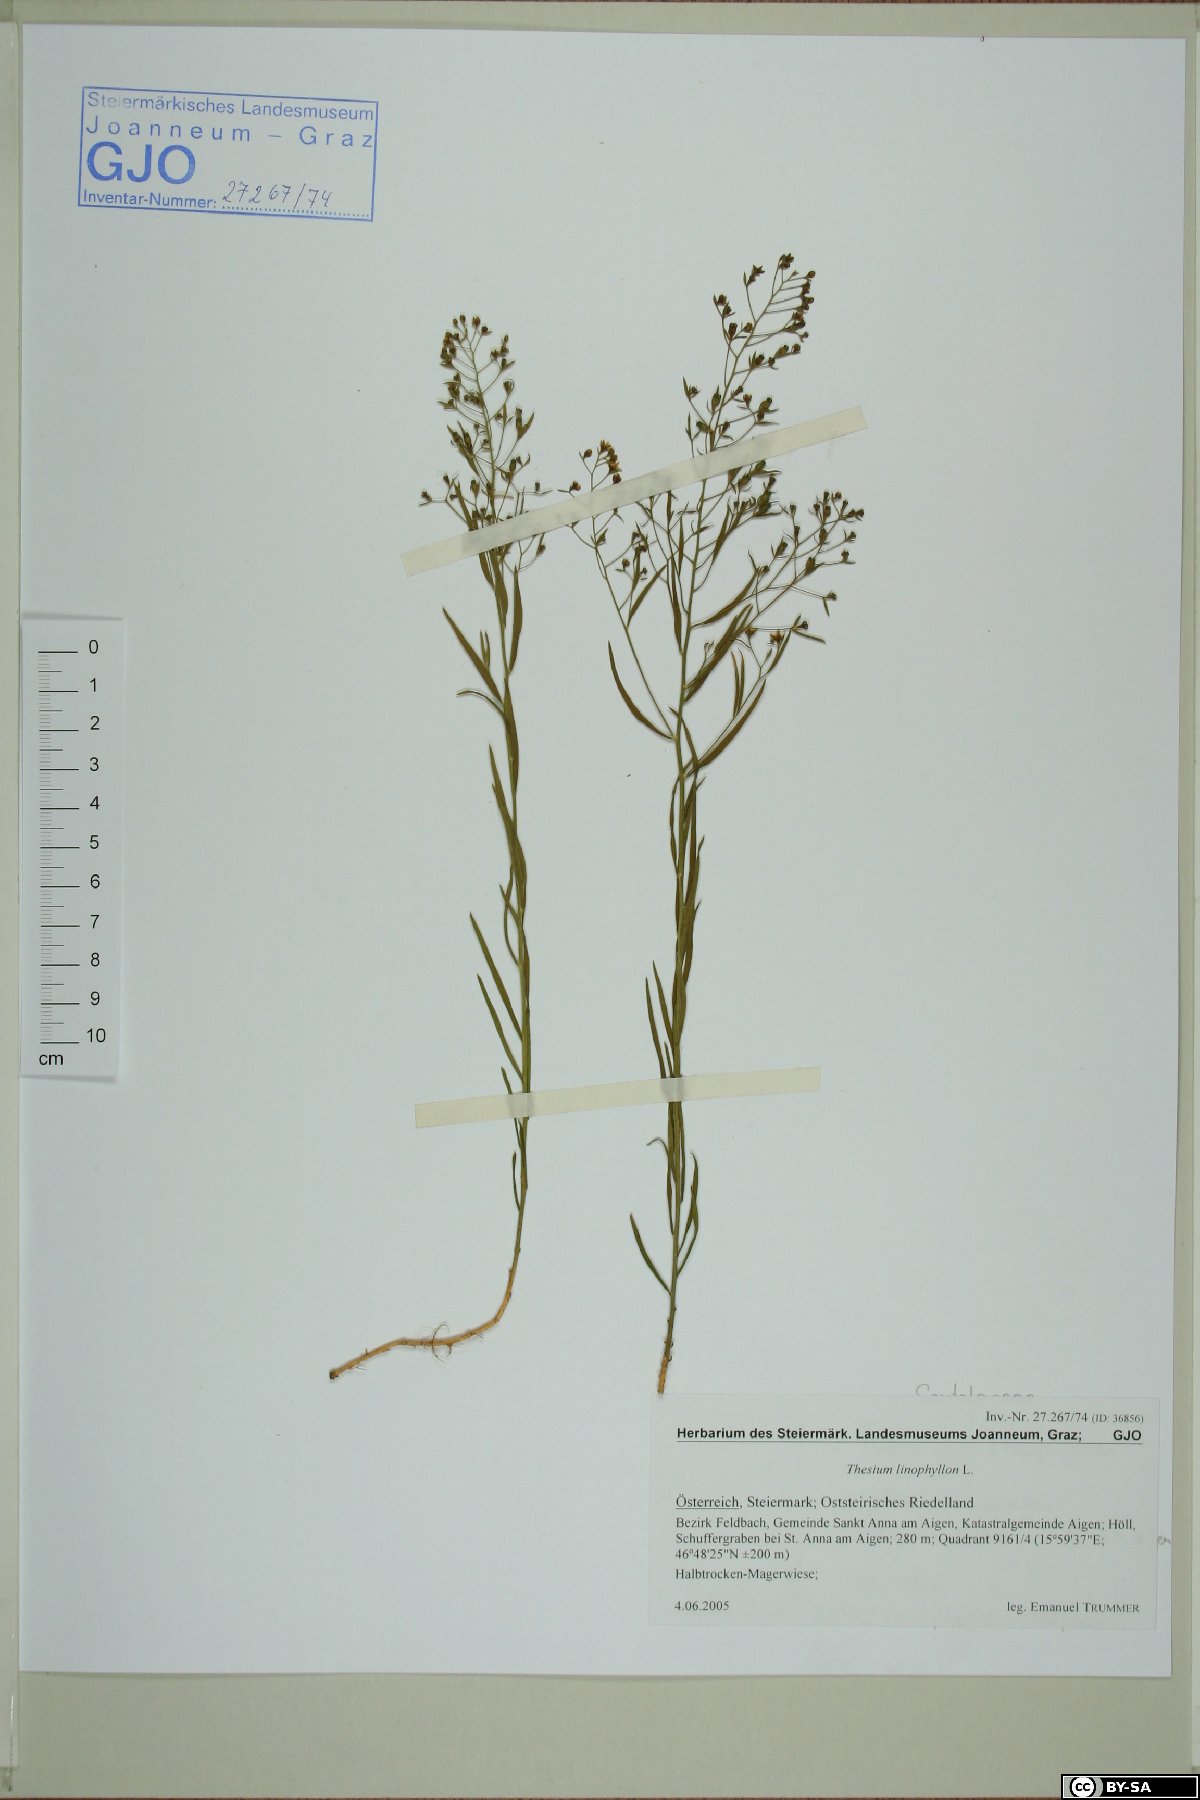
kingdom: Plantae
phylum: Tracheophyta
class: Magnoliopsida
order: Santalales
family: Thesiaceae
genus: Thesium
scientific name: Thesium linophyllon
